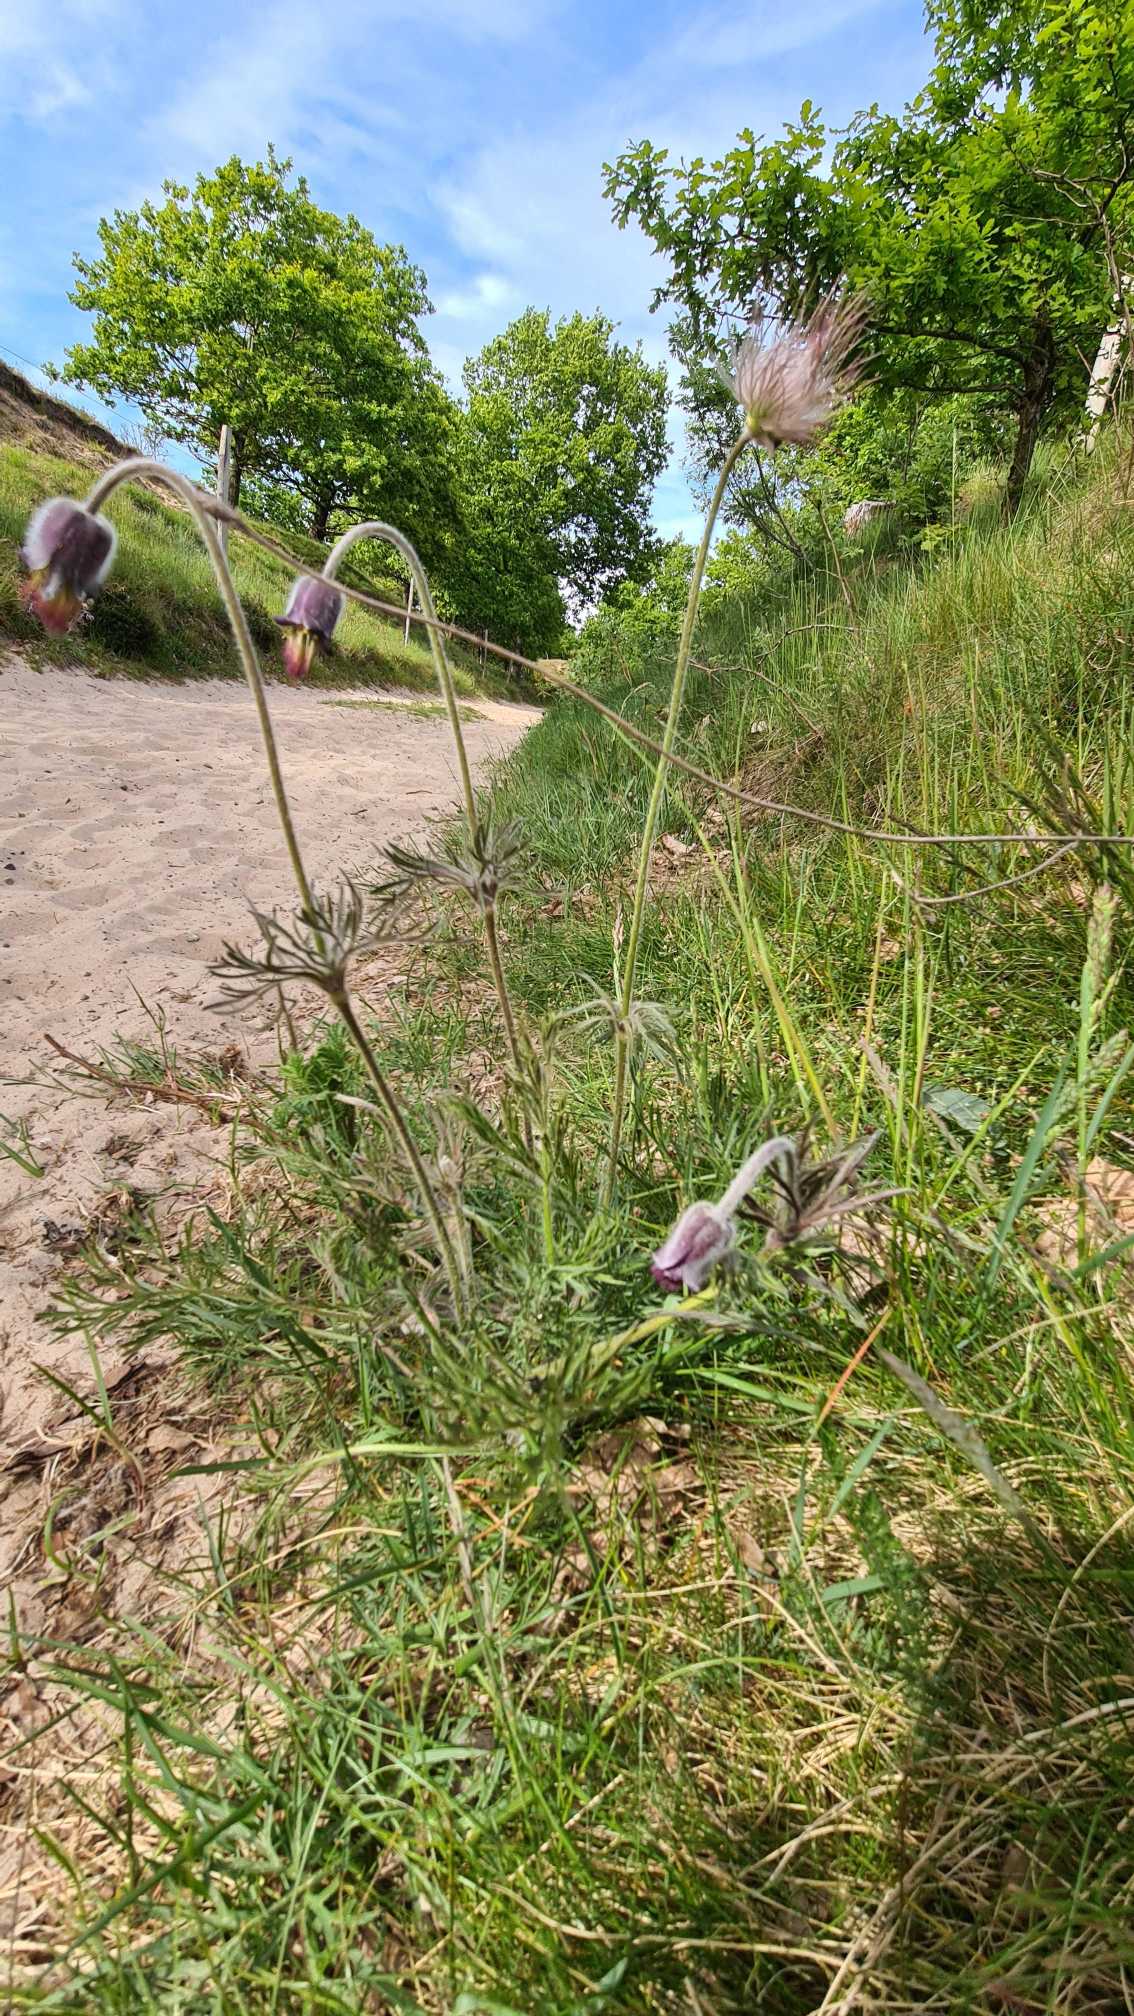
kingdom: Plantae
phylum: Tracheophyta
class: Magnoliopsida
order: Ranunculales
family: Ranunculaceae
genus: Pulsatilla
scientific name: Pulsatilla pratensis
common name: Nikkende kobjælde
